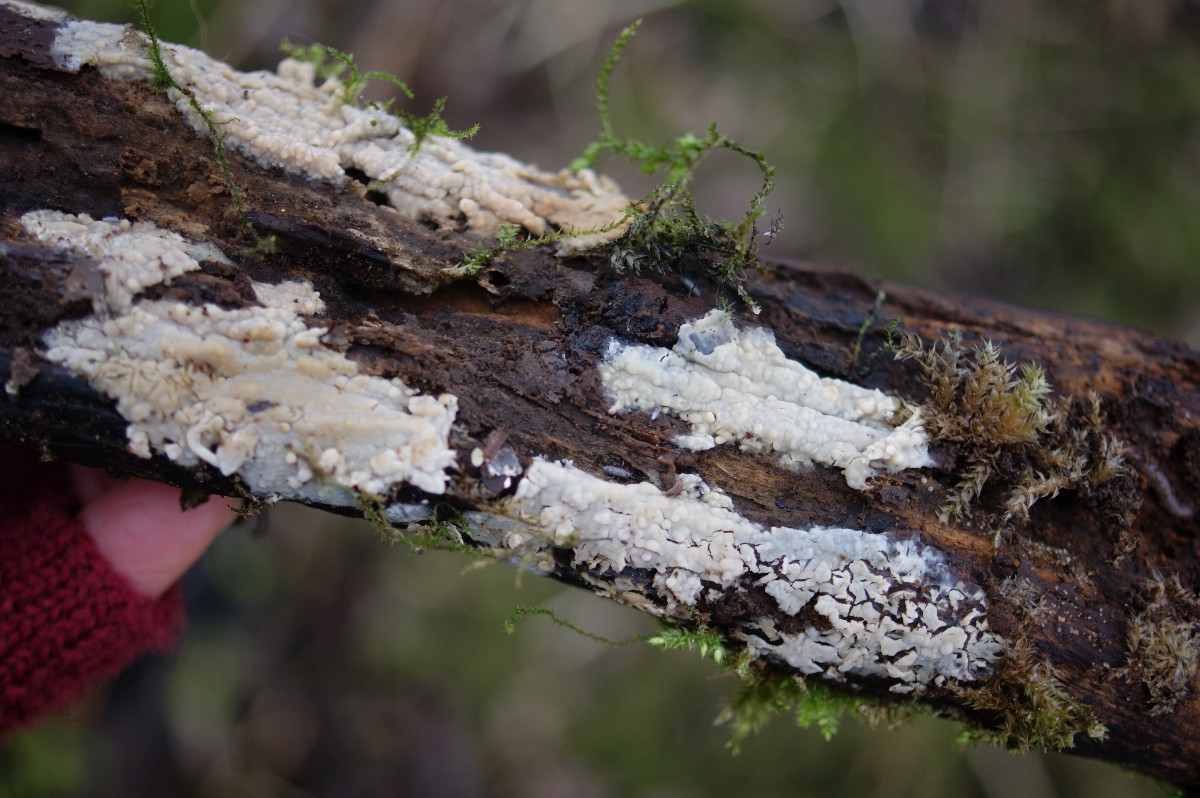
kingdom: Fungi
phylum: Basidiomycota
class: Agaricomycetes
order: Agaricales
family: Radulomycetaceae
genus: Radulomyces
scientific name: Radulomyces confluens
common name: glat naftalinskind
